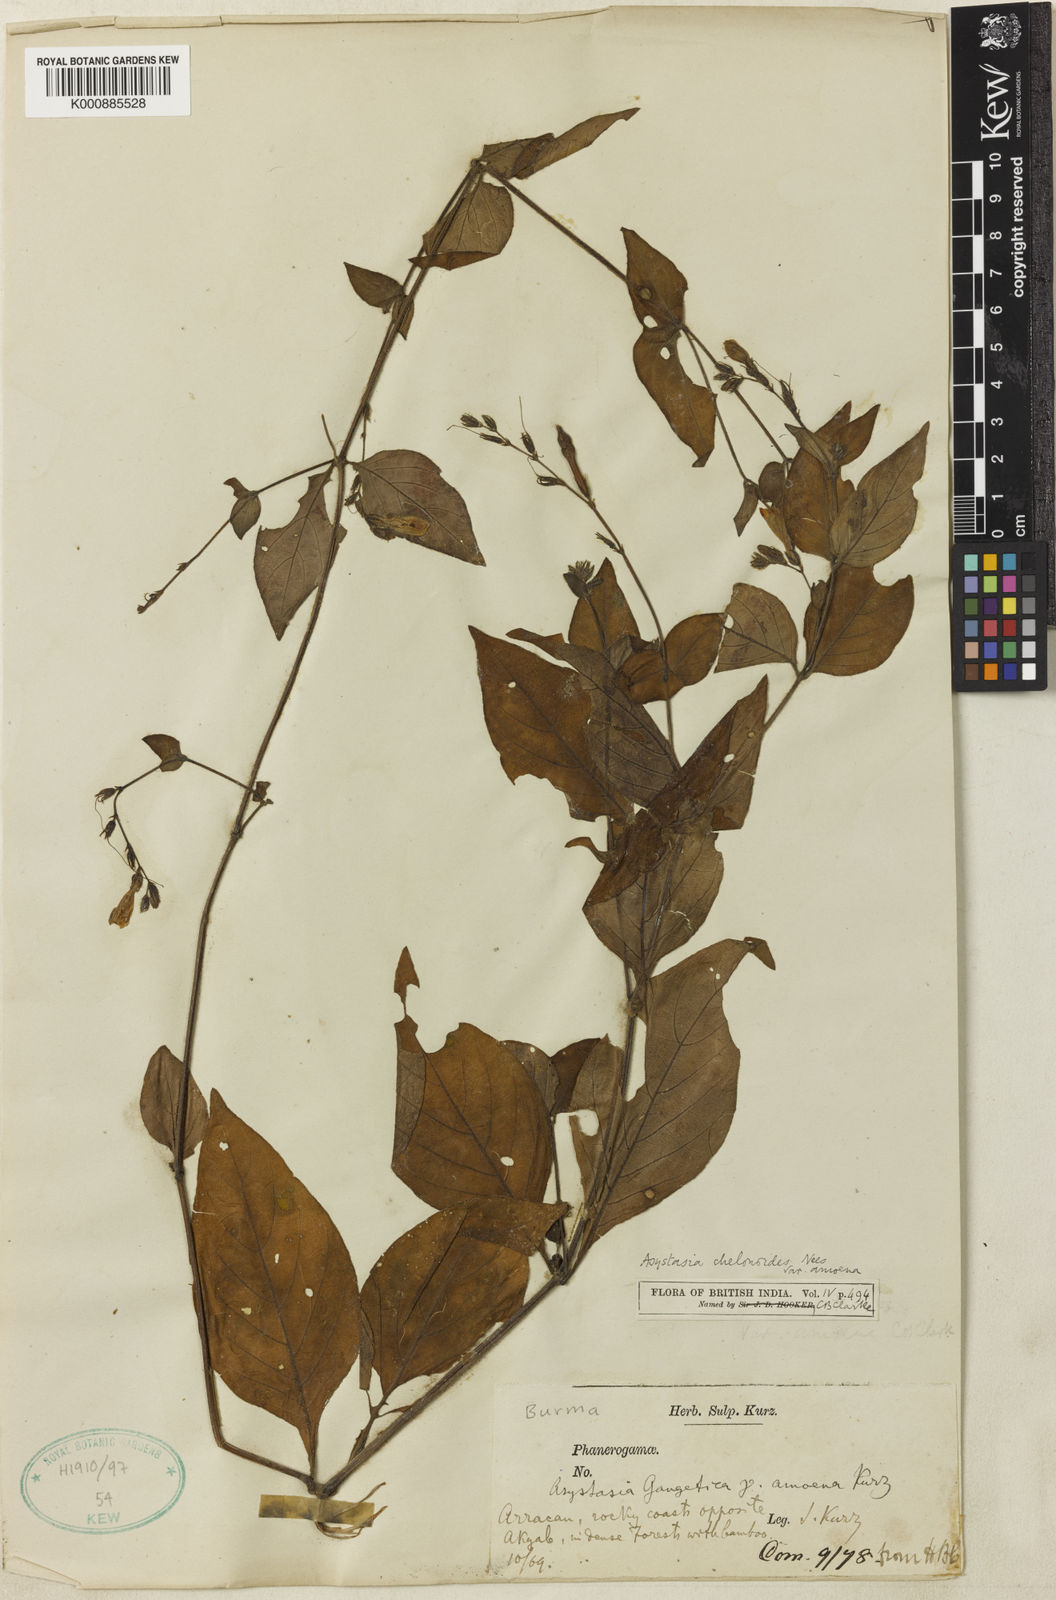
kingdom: Plantae
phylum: Tracheophyta
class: Magnoliopsida
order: Lamiales
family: Acanthaceae
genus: Asystasia
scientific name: Asystasia nemorum
